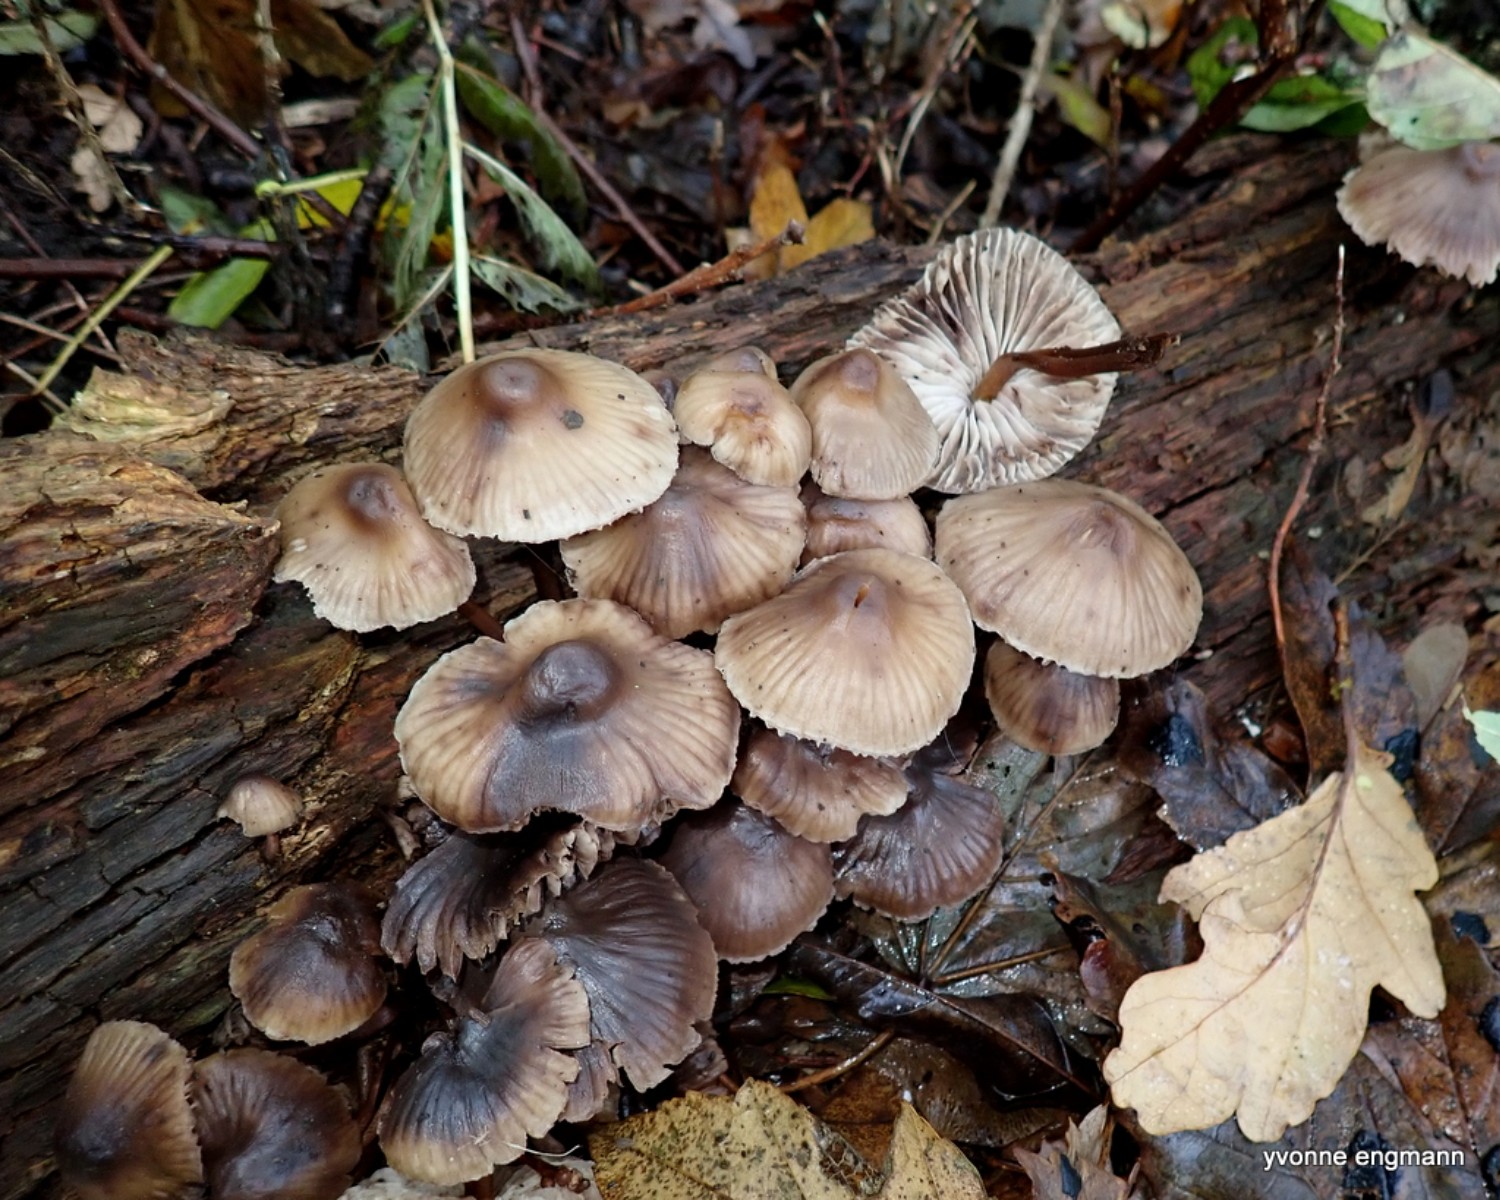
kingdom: Fungi
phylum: Basidiomycota
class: Agaricomycetes
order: Agaricales
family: Mycenaceae
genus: Mycena
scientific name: Mycena
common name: huesvamp
